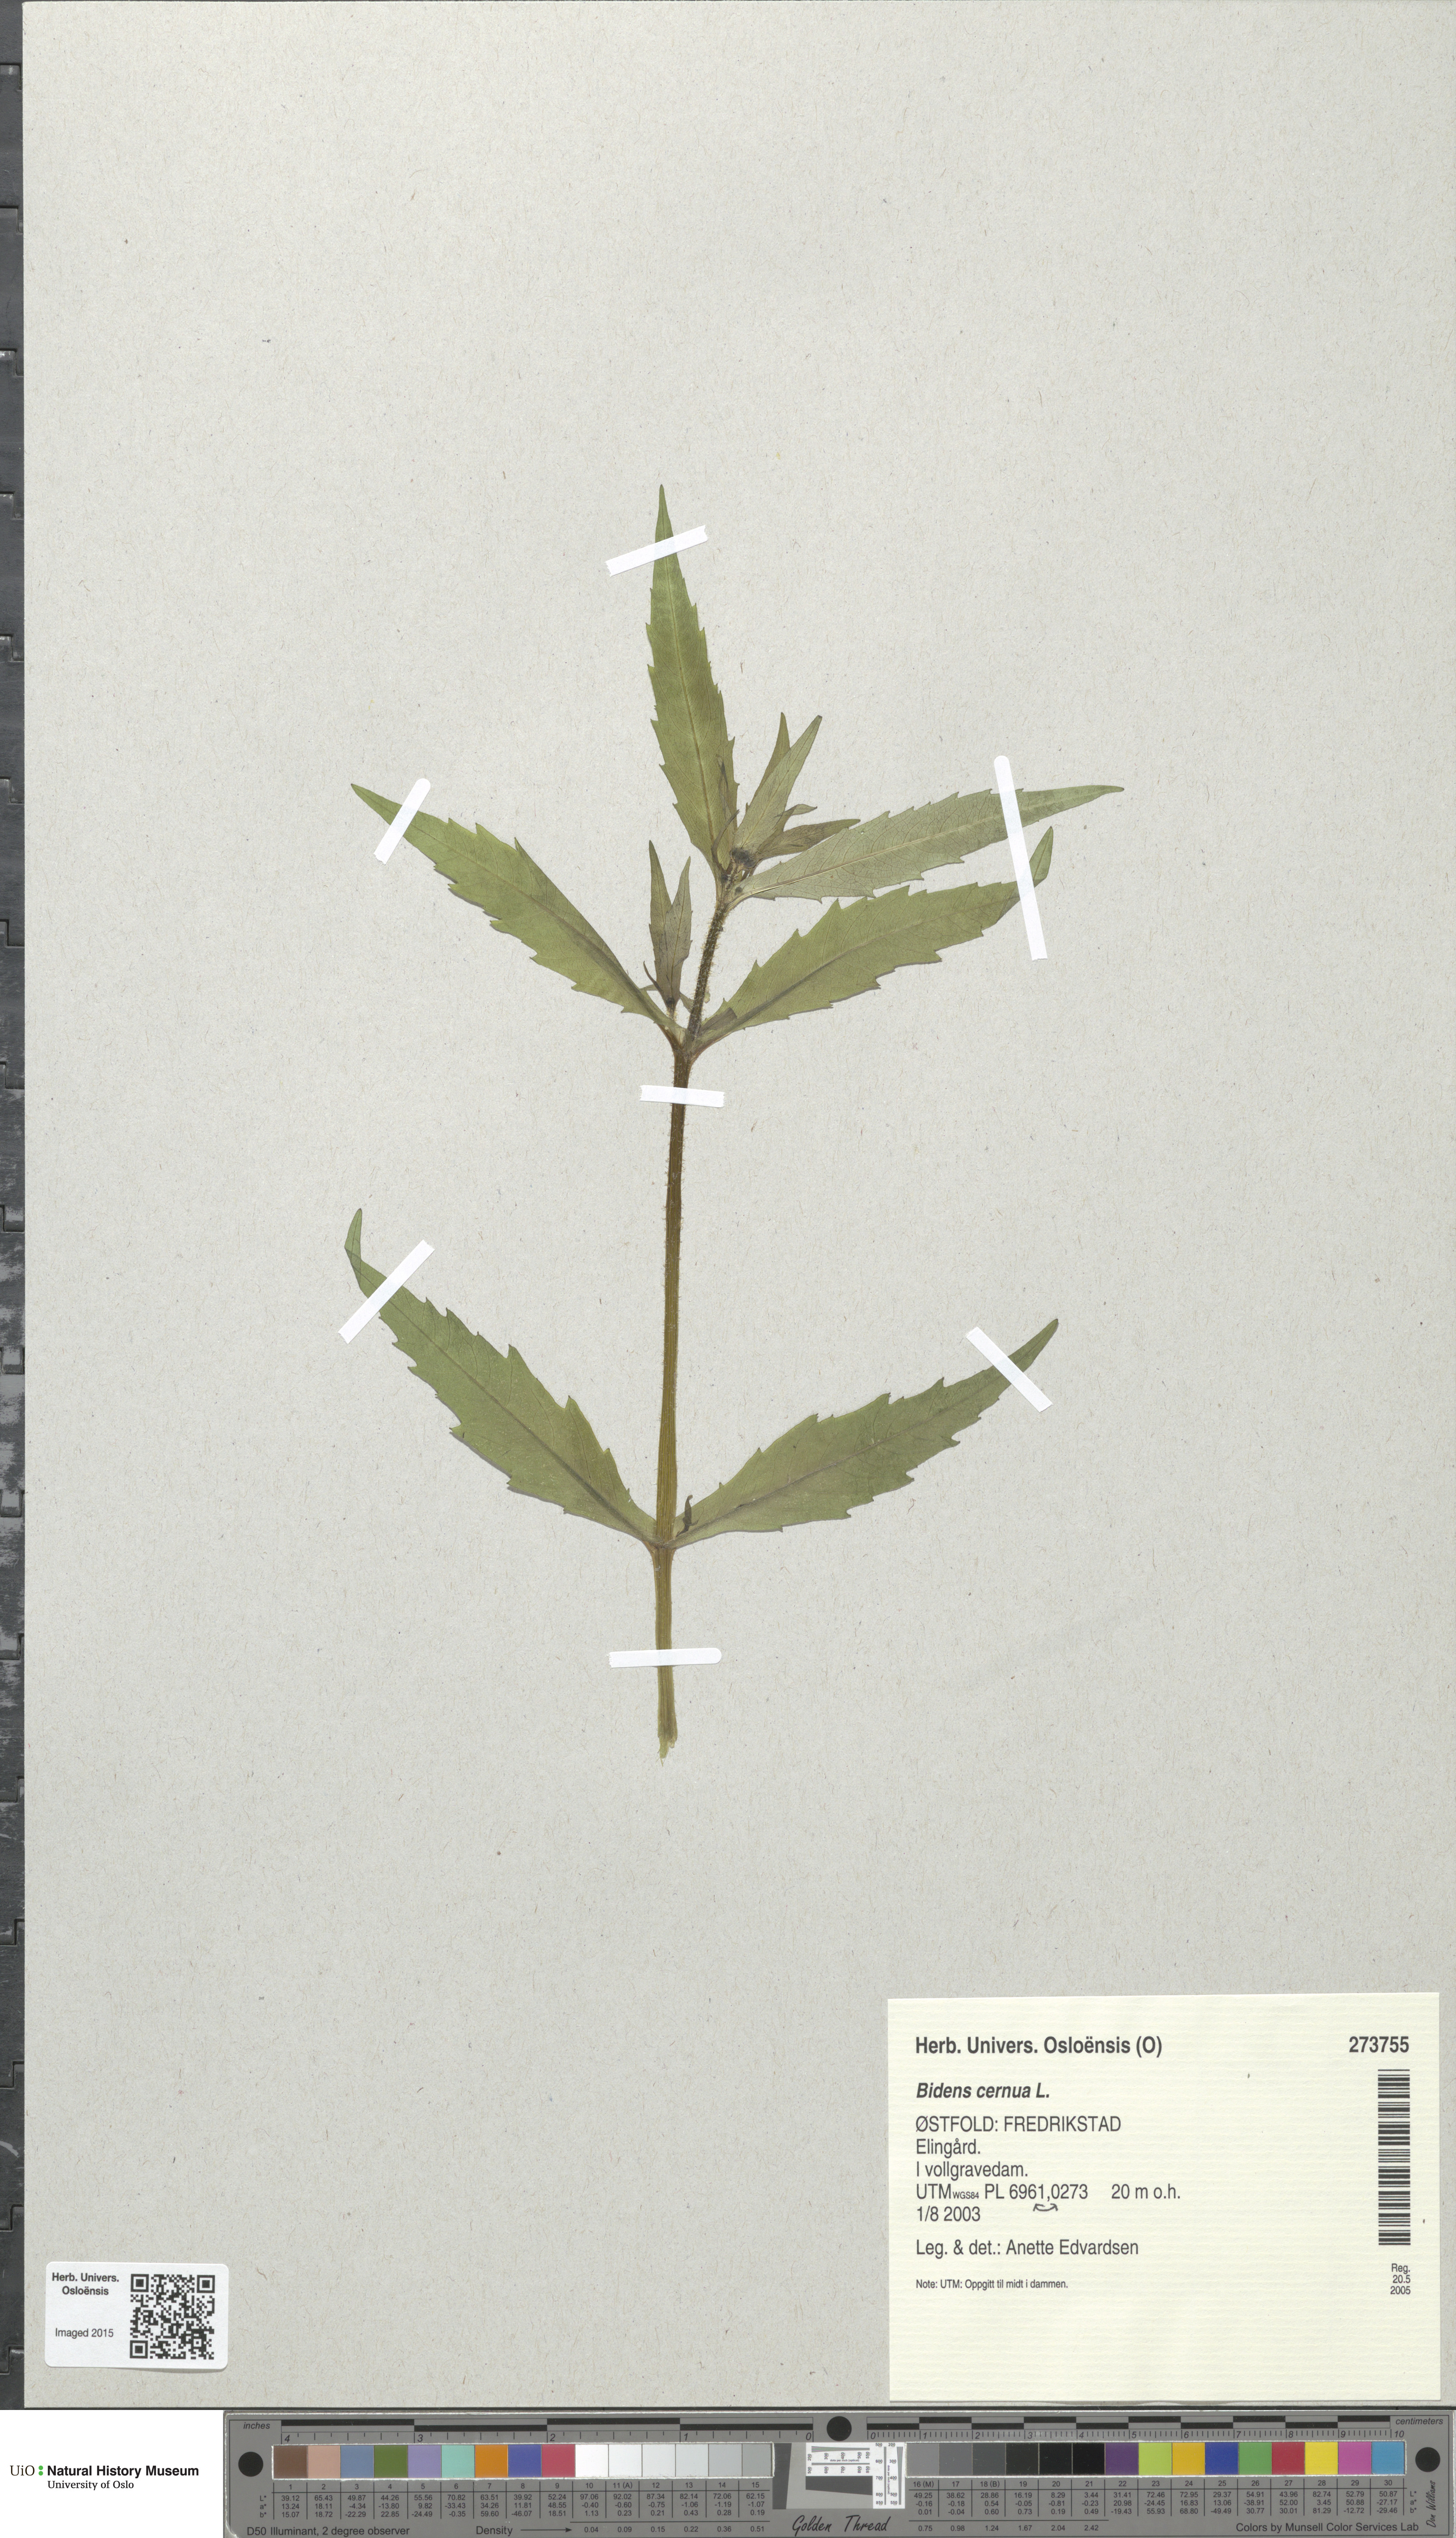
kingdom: Plantae
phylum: Tracheophyta
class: Magnoliopsida
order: Asterales
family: Asteraceae
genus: Bidens
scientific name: Bidens cernua
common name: Nodding bur-marigold
